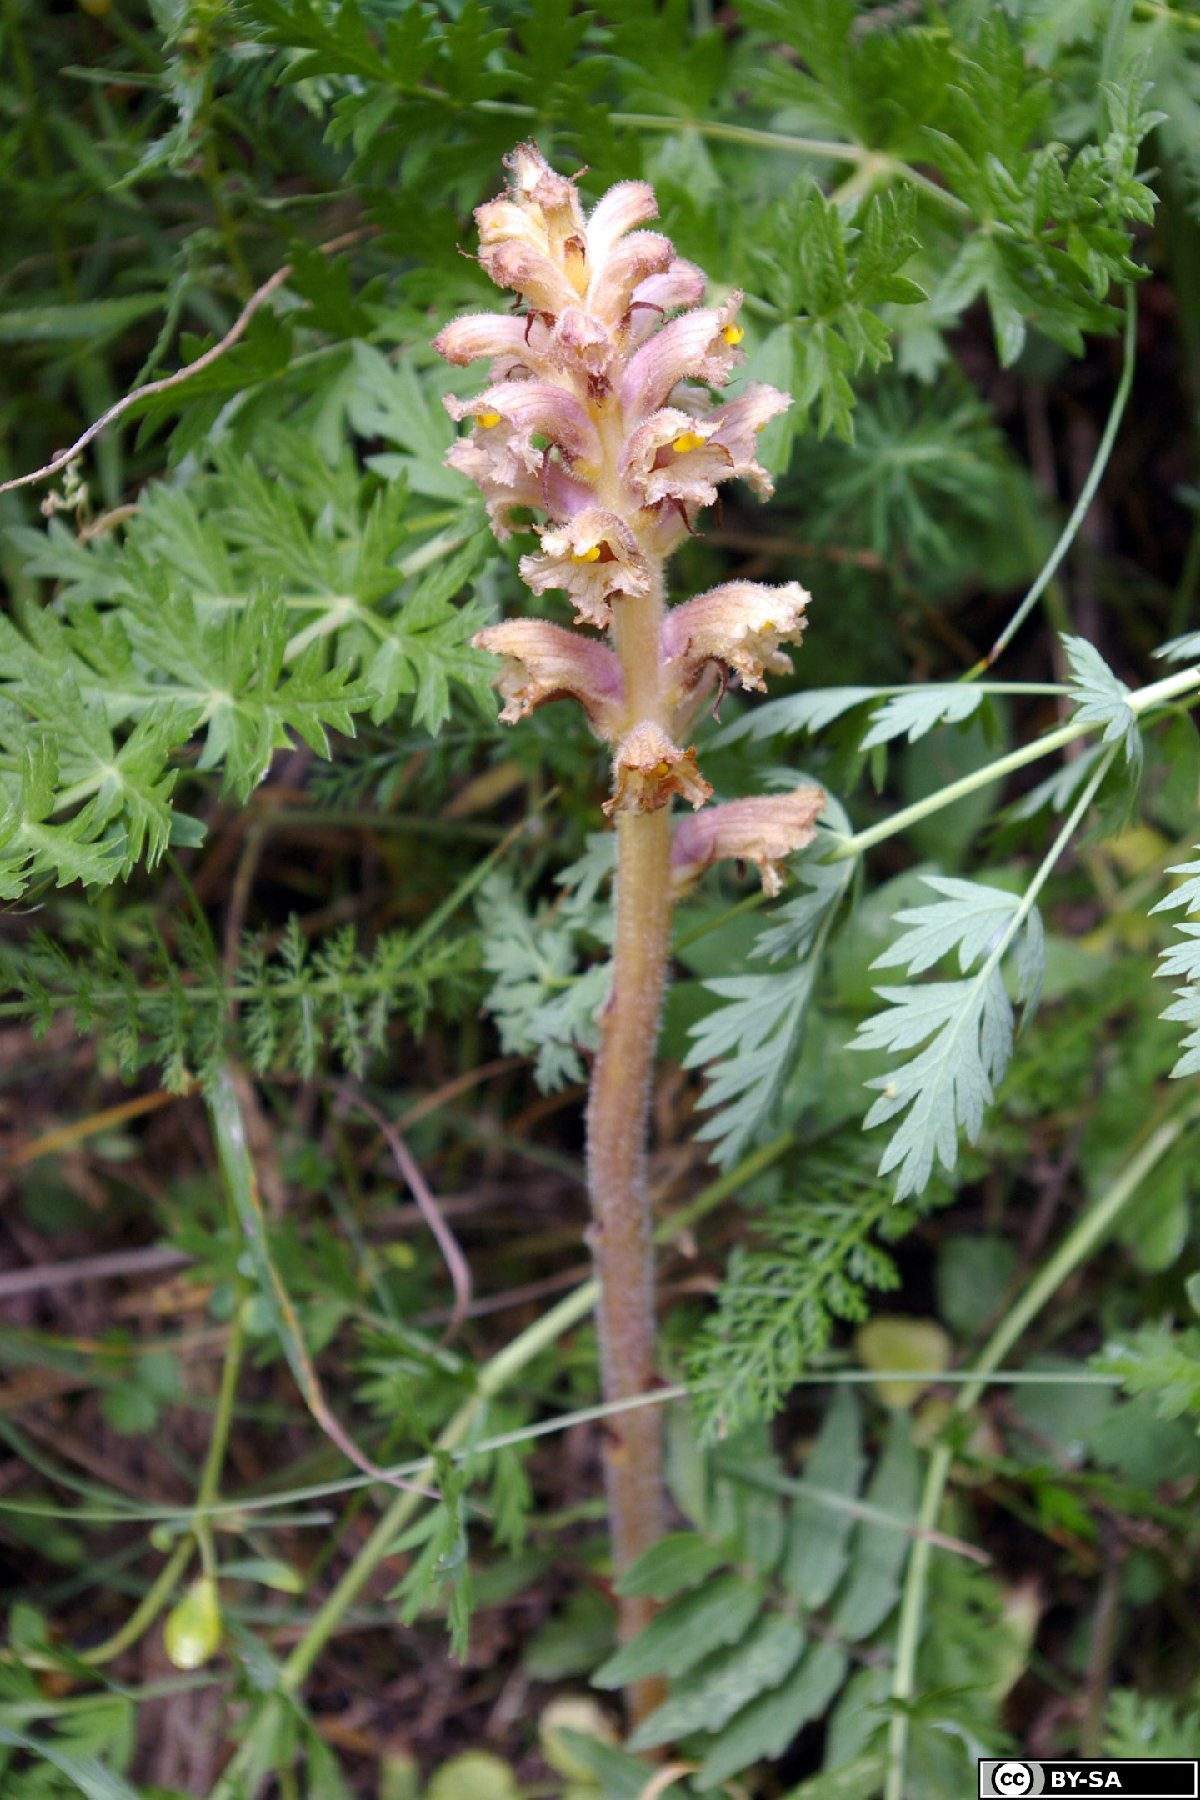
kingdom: Plantae
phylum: Tracheophyta
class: Magnoliopsida
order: Lamiales
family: Orobanchaceae
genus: Orobanche
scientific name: Orobanche alsatica
